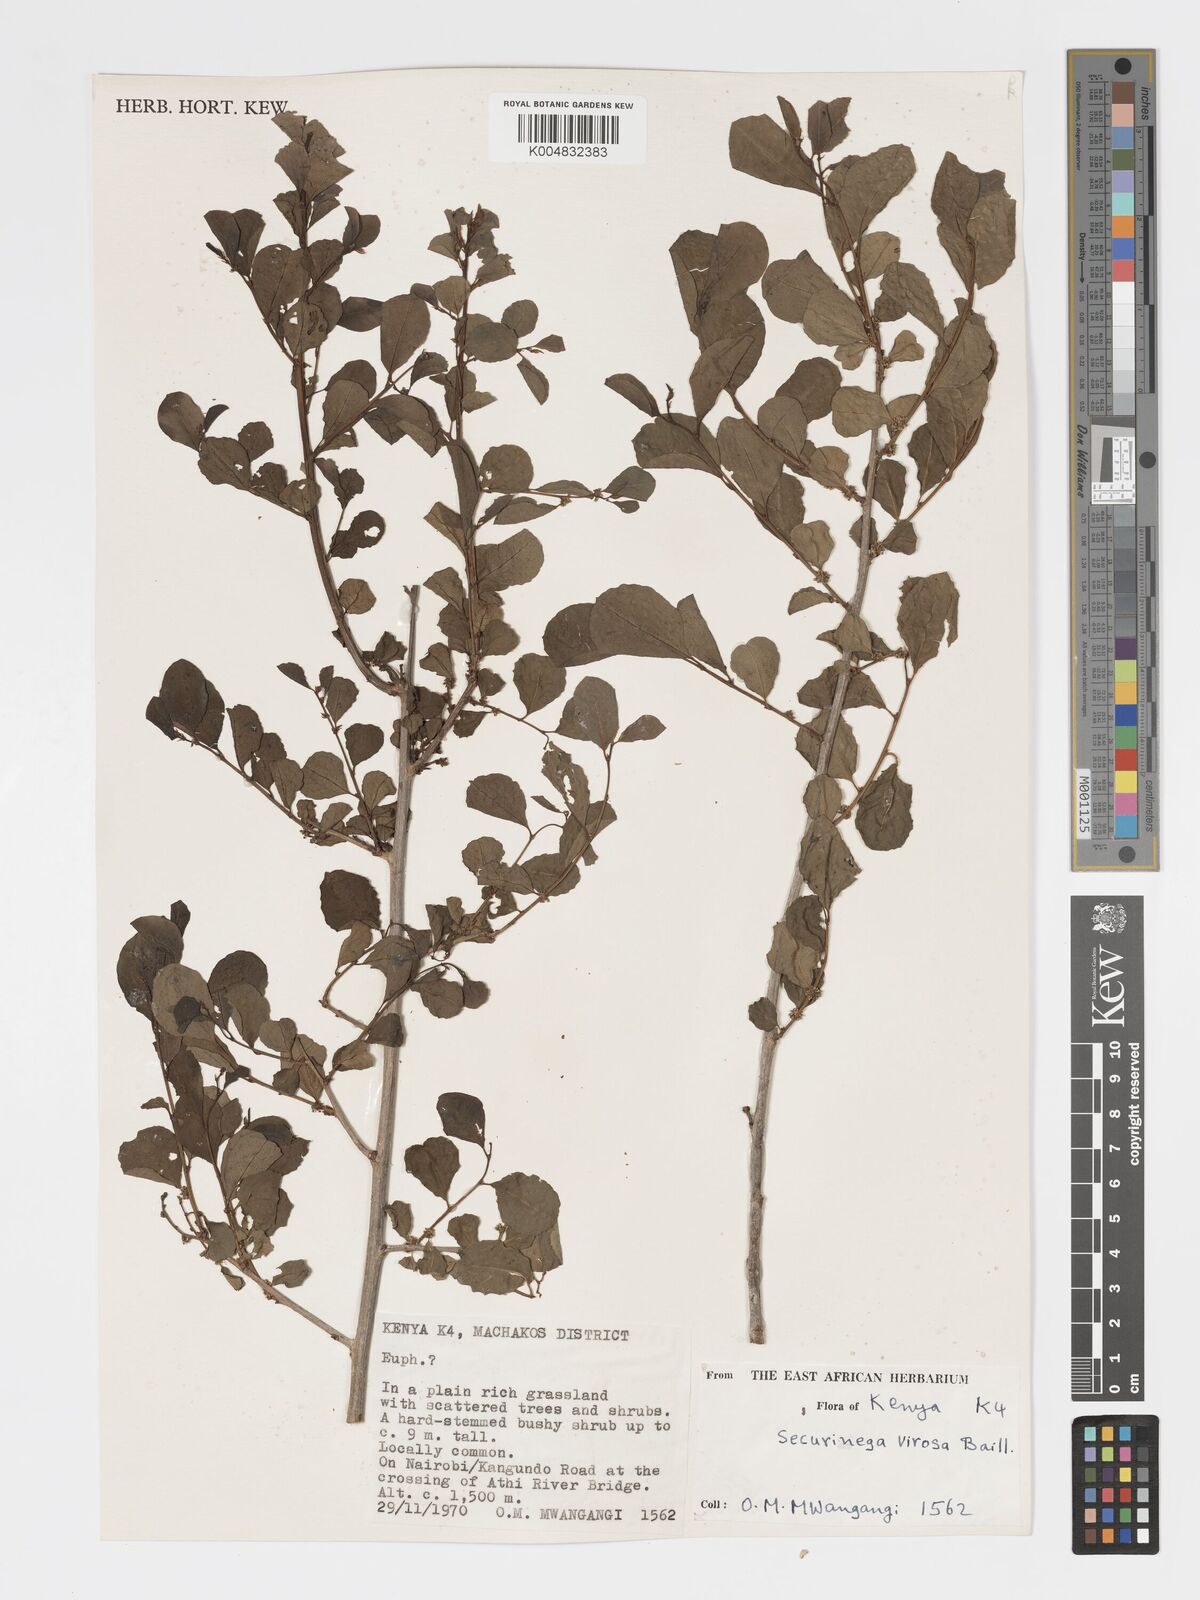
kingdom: Plantae
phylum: Tracheophyta
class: Magnoliopsida
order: Malpighiales
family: Phyllanthaceae
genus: Flueggea
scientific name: Flueggea
